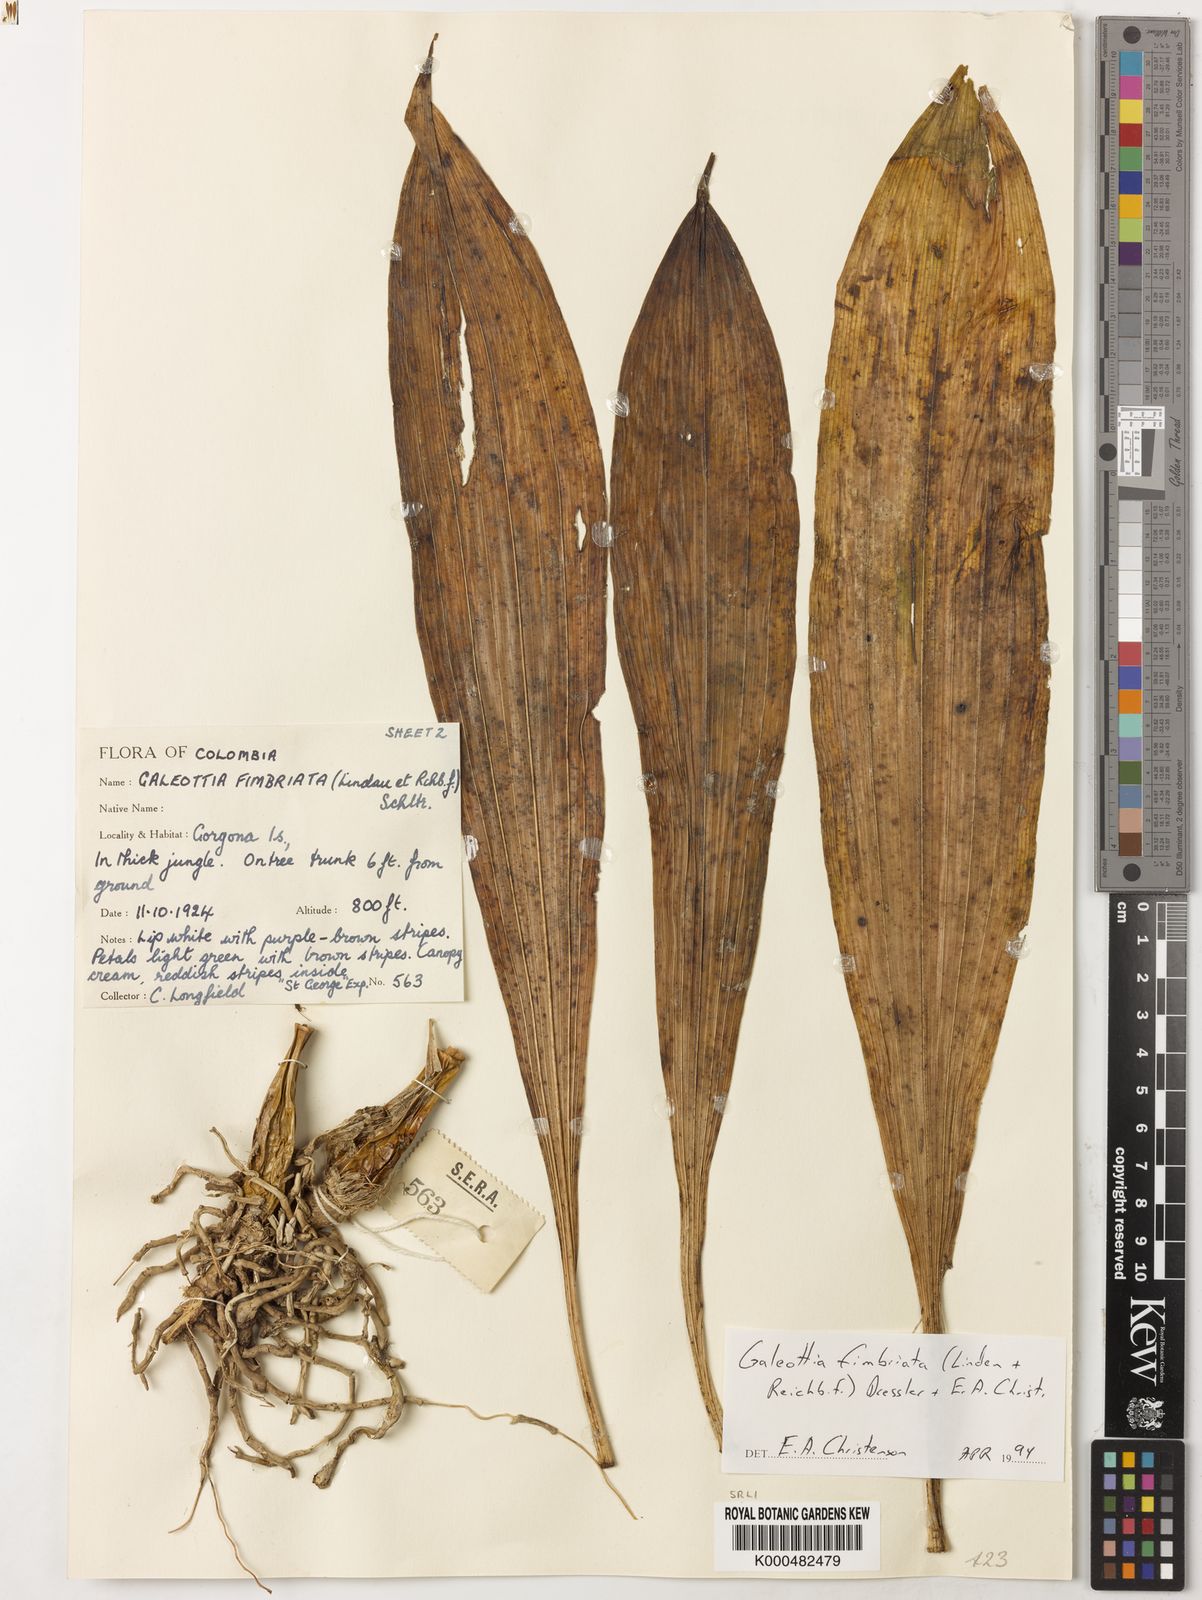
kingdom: Plantae
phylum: Tracheophyta
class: Liliopsida
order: Asparagales
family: Orchidaceae
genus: Galeottia
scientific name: Galeottia
